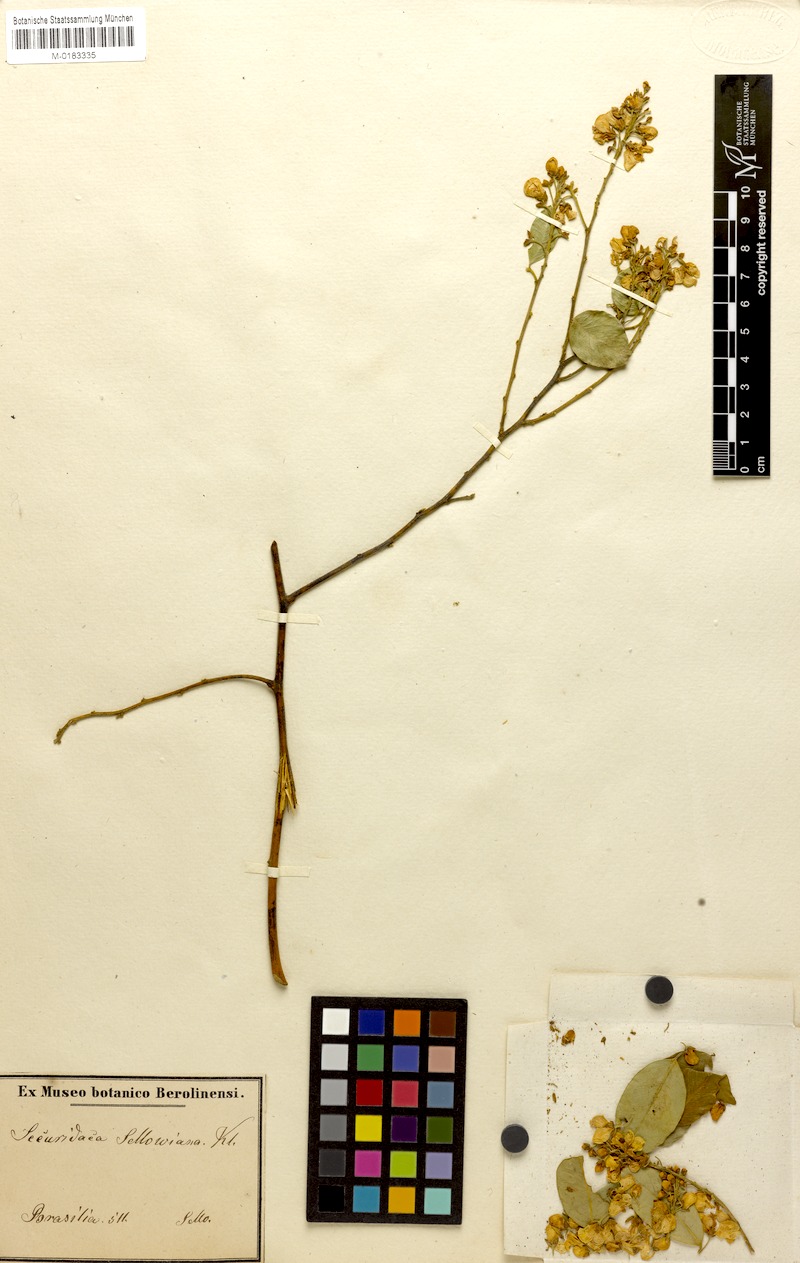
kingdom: Plantae
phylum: Tracheophyta
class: Magnoliopsida
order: Fabales
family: Polygalaceae
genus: Securidaca
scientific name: Securidaca lanceolata
